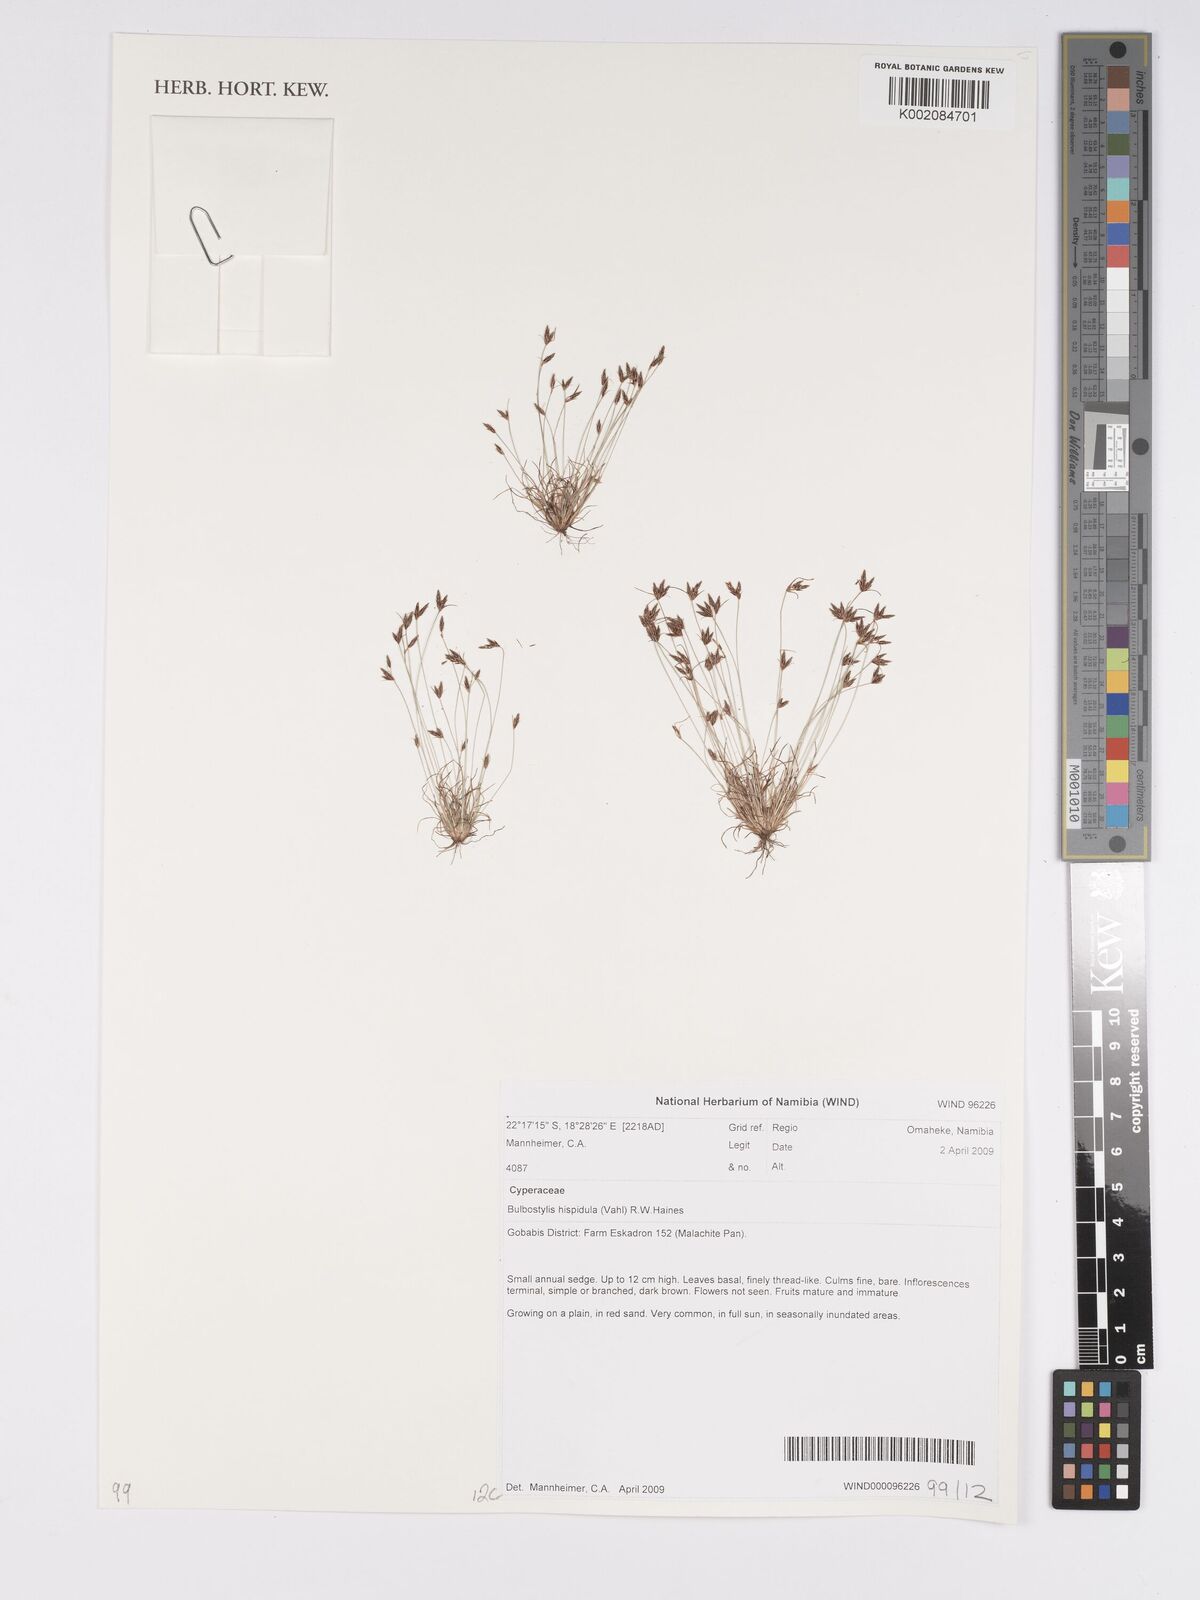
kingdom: Plantae
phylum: Tracheophyta
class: Liliopsida
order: Poales
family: Cyperaceae
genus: Bulbostylis
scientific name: Bulbostylis hispidula
